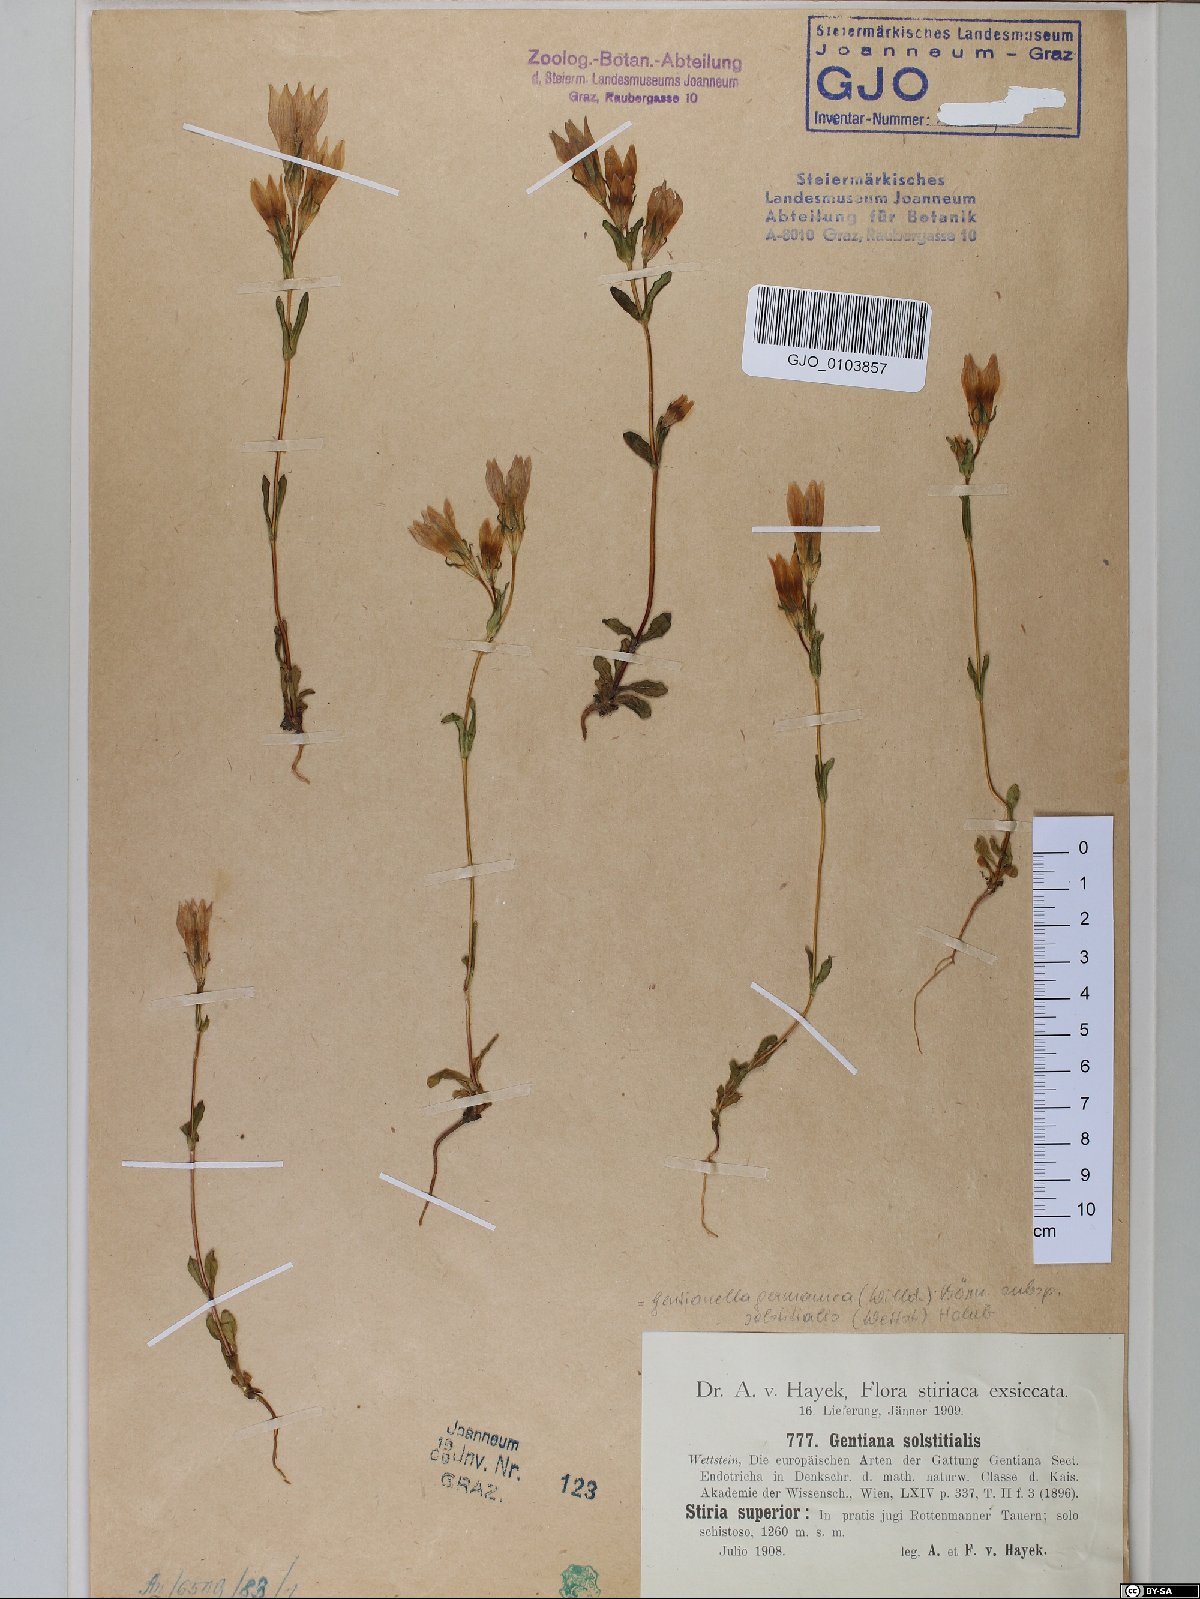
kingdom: Plantae
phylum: Tracheophyta
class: Magnoliopsida
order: Gentianales
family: Gentianaceae
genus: Gentianella
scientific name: Gentianella germanica
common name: Chiltern-gentian
